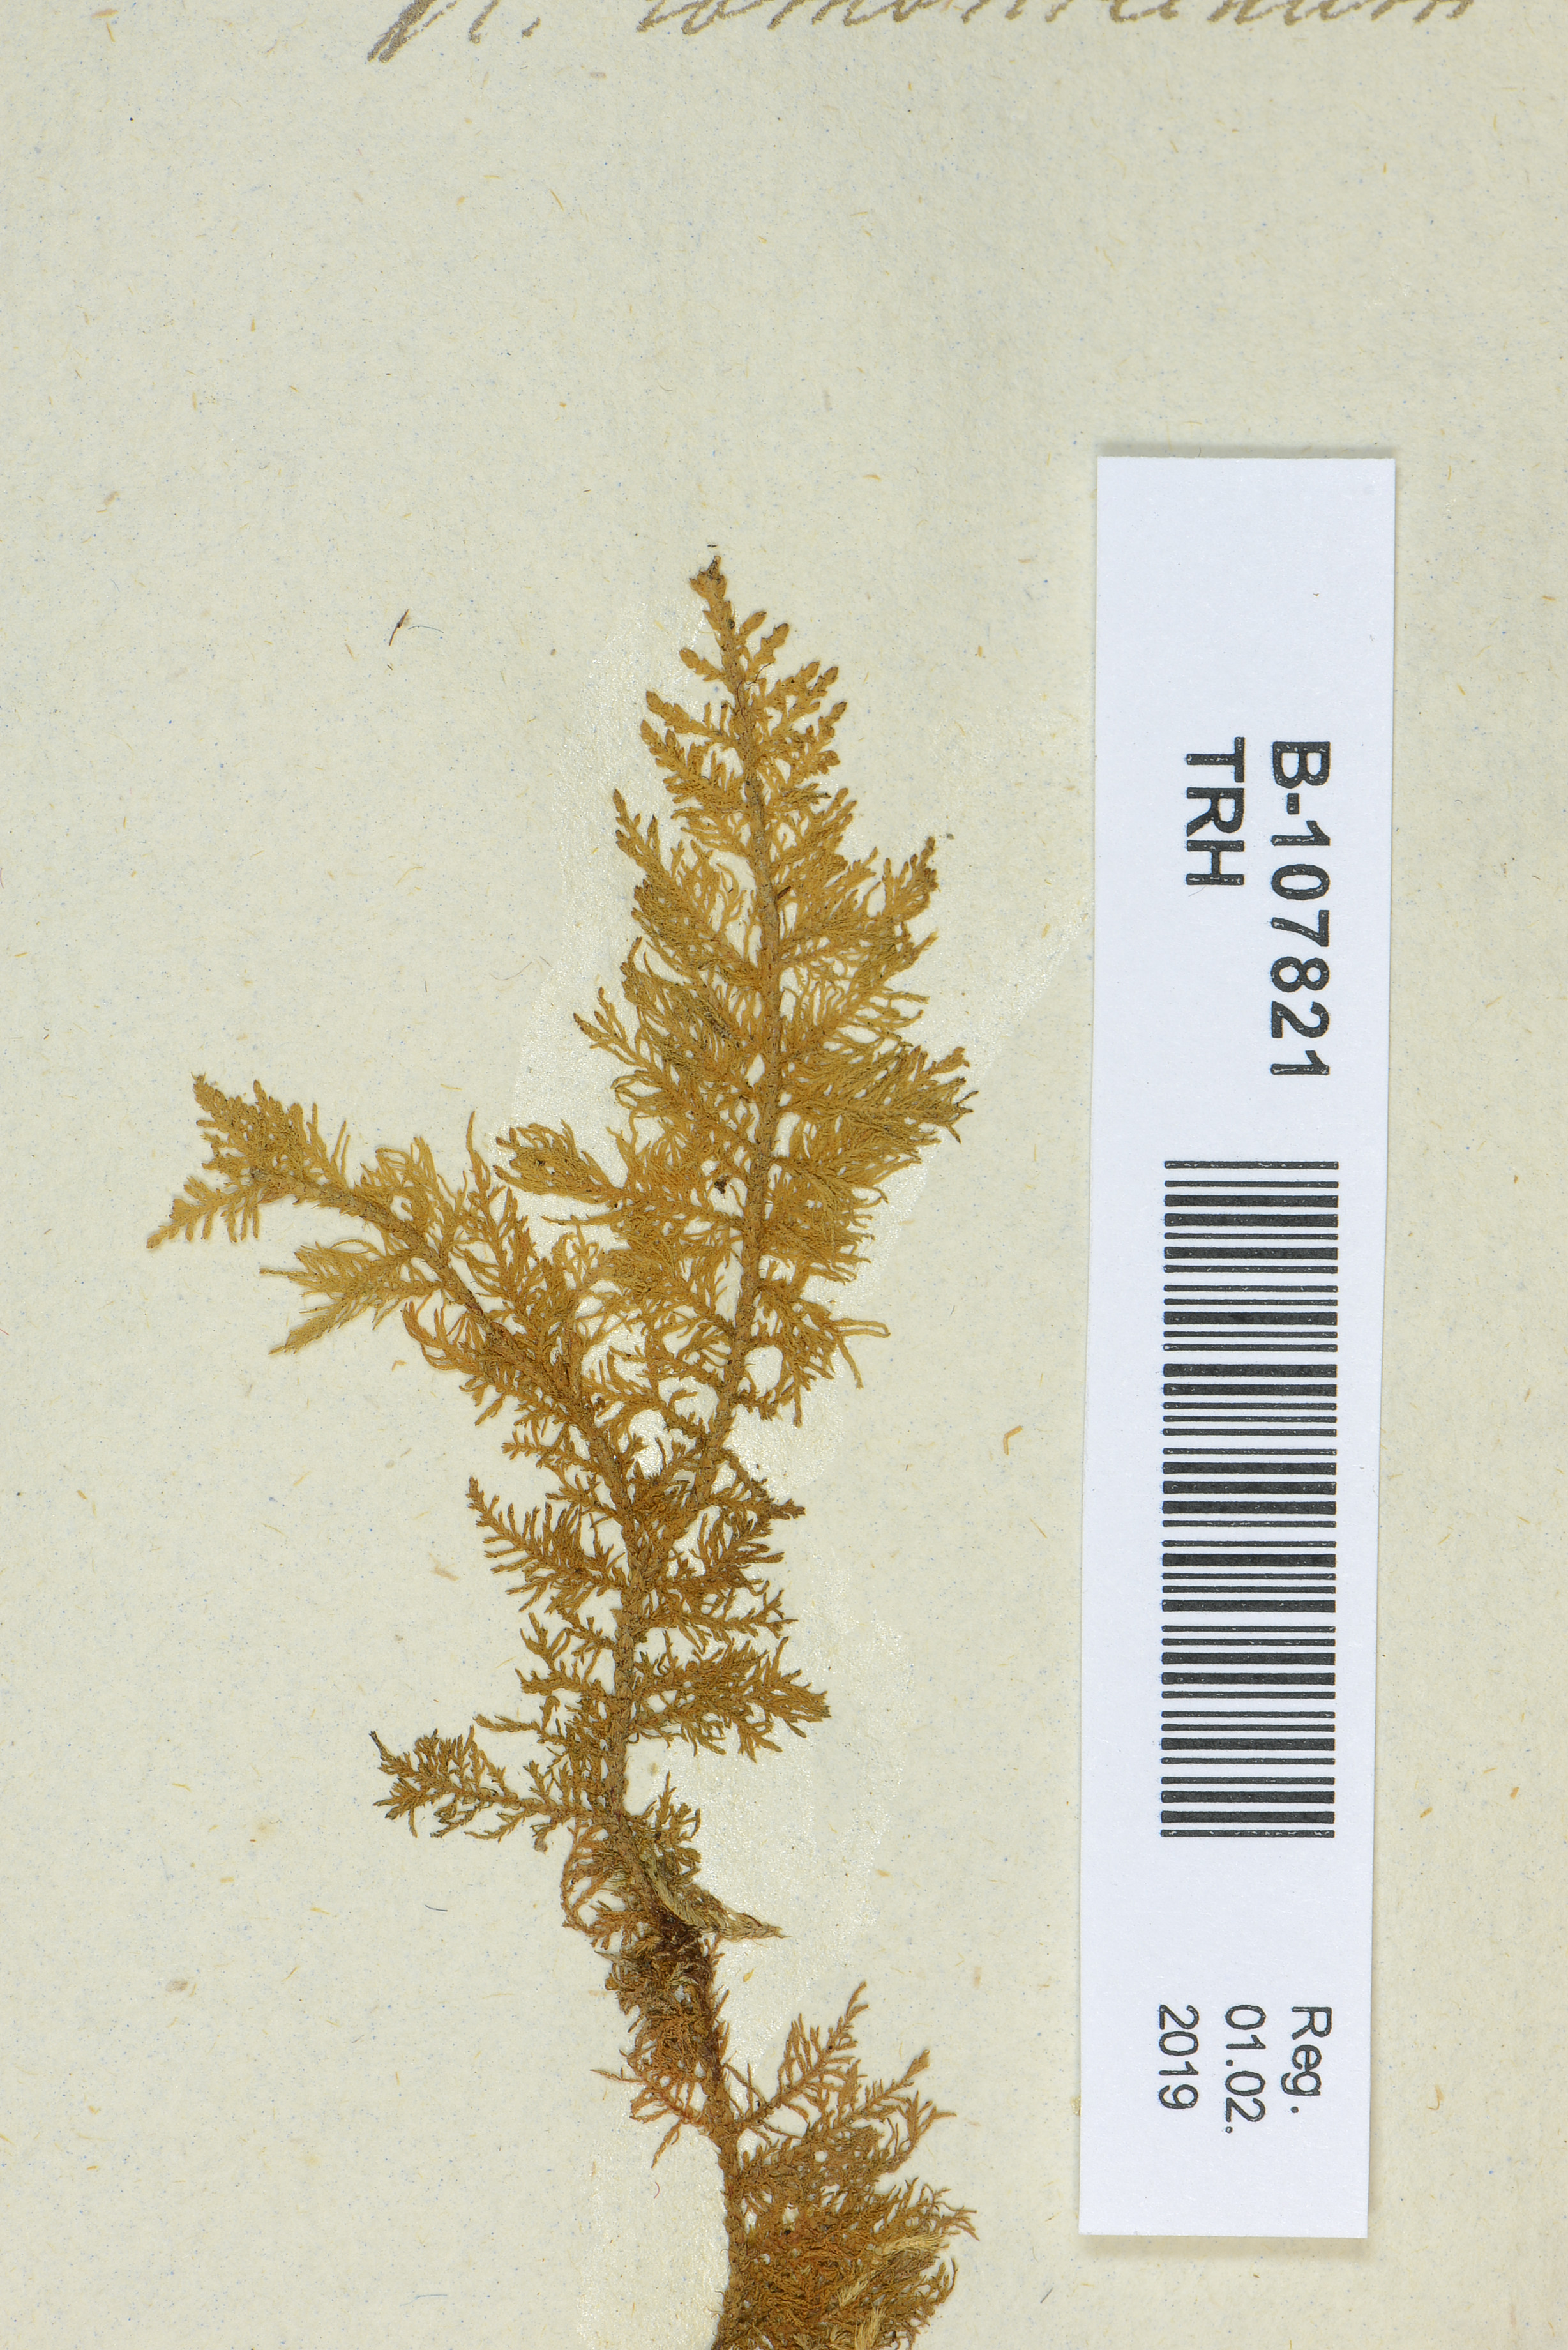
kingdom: Plantae
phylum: Bryophyta
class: Bryopsida
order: Hypnales
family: Thuidiaceae
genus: Thuidium
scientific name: Thuidium assimile
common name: Philibert's fern moss
